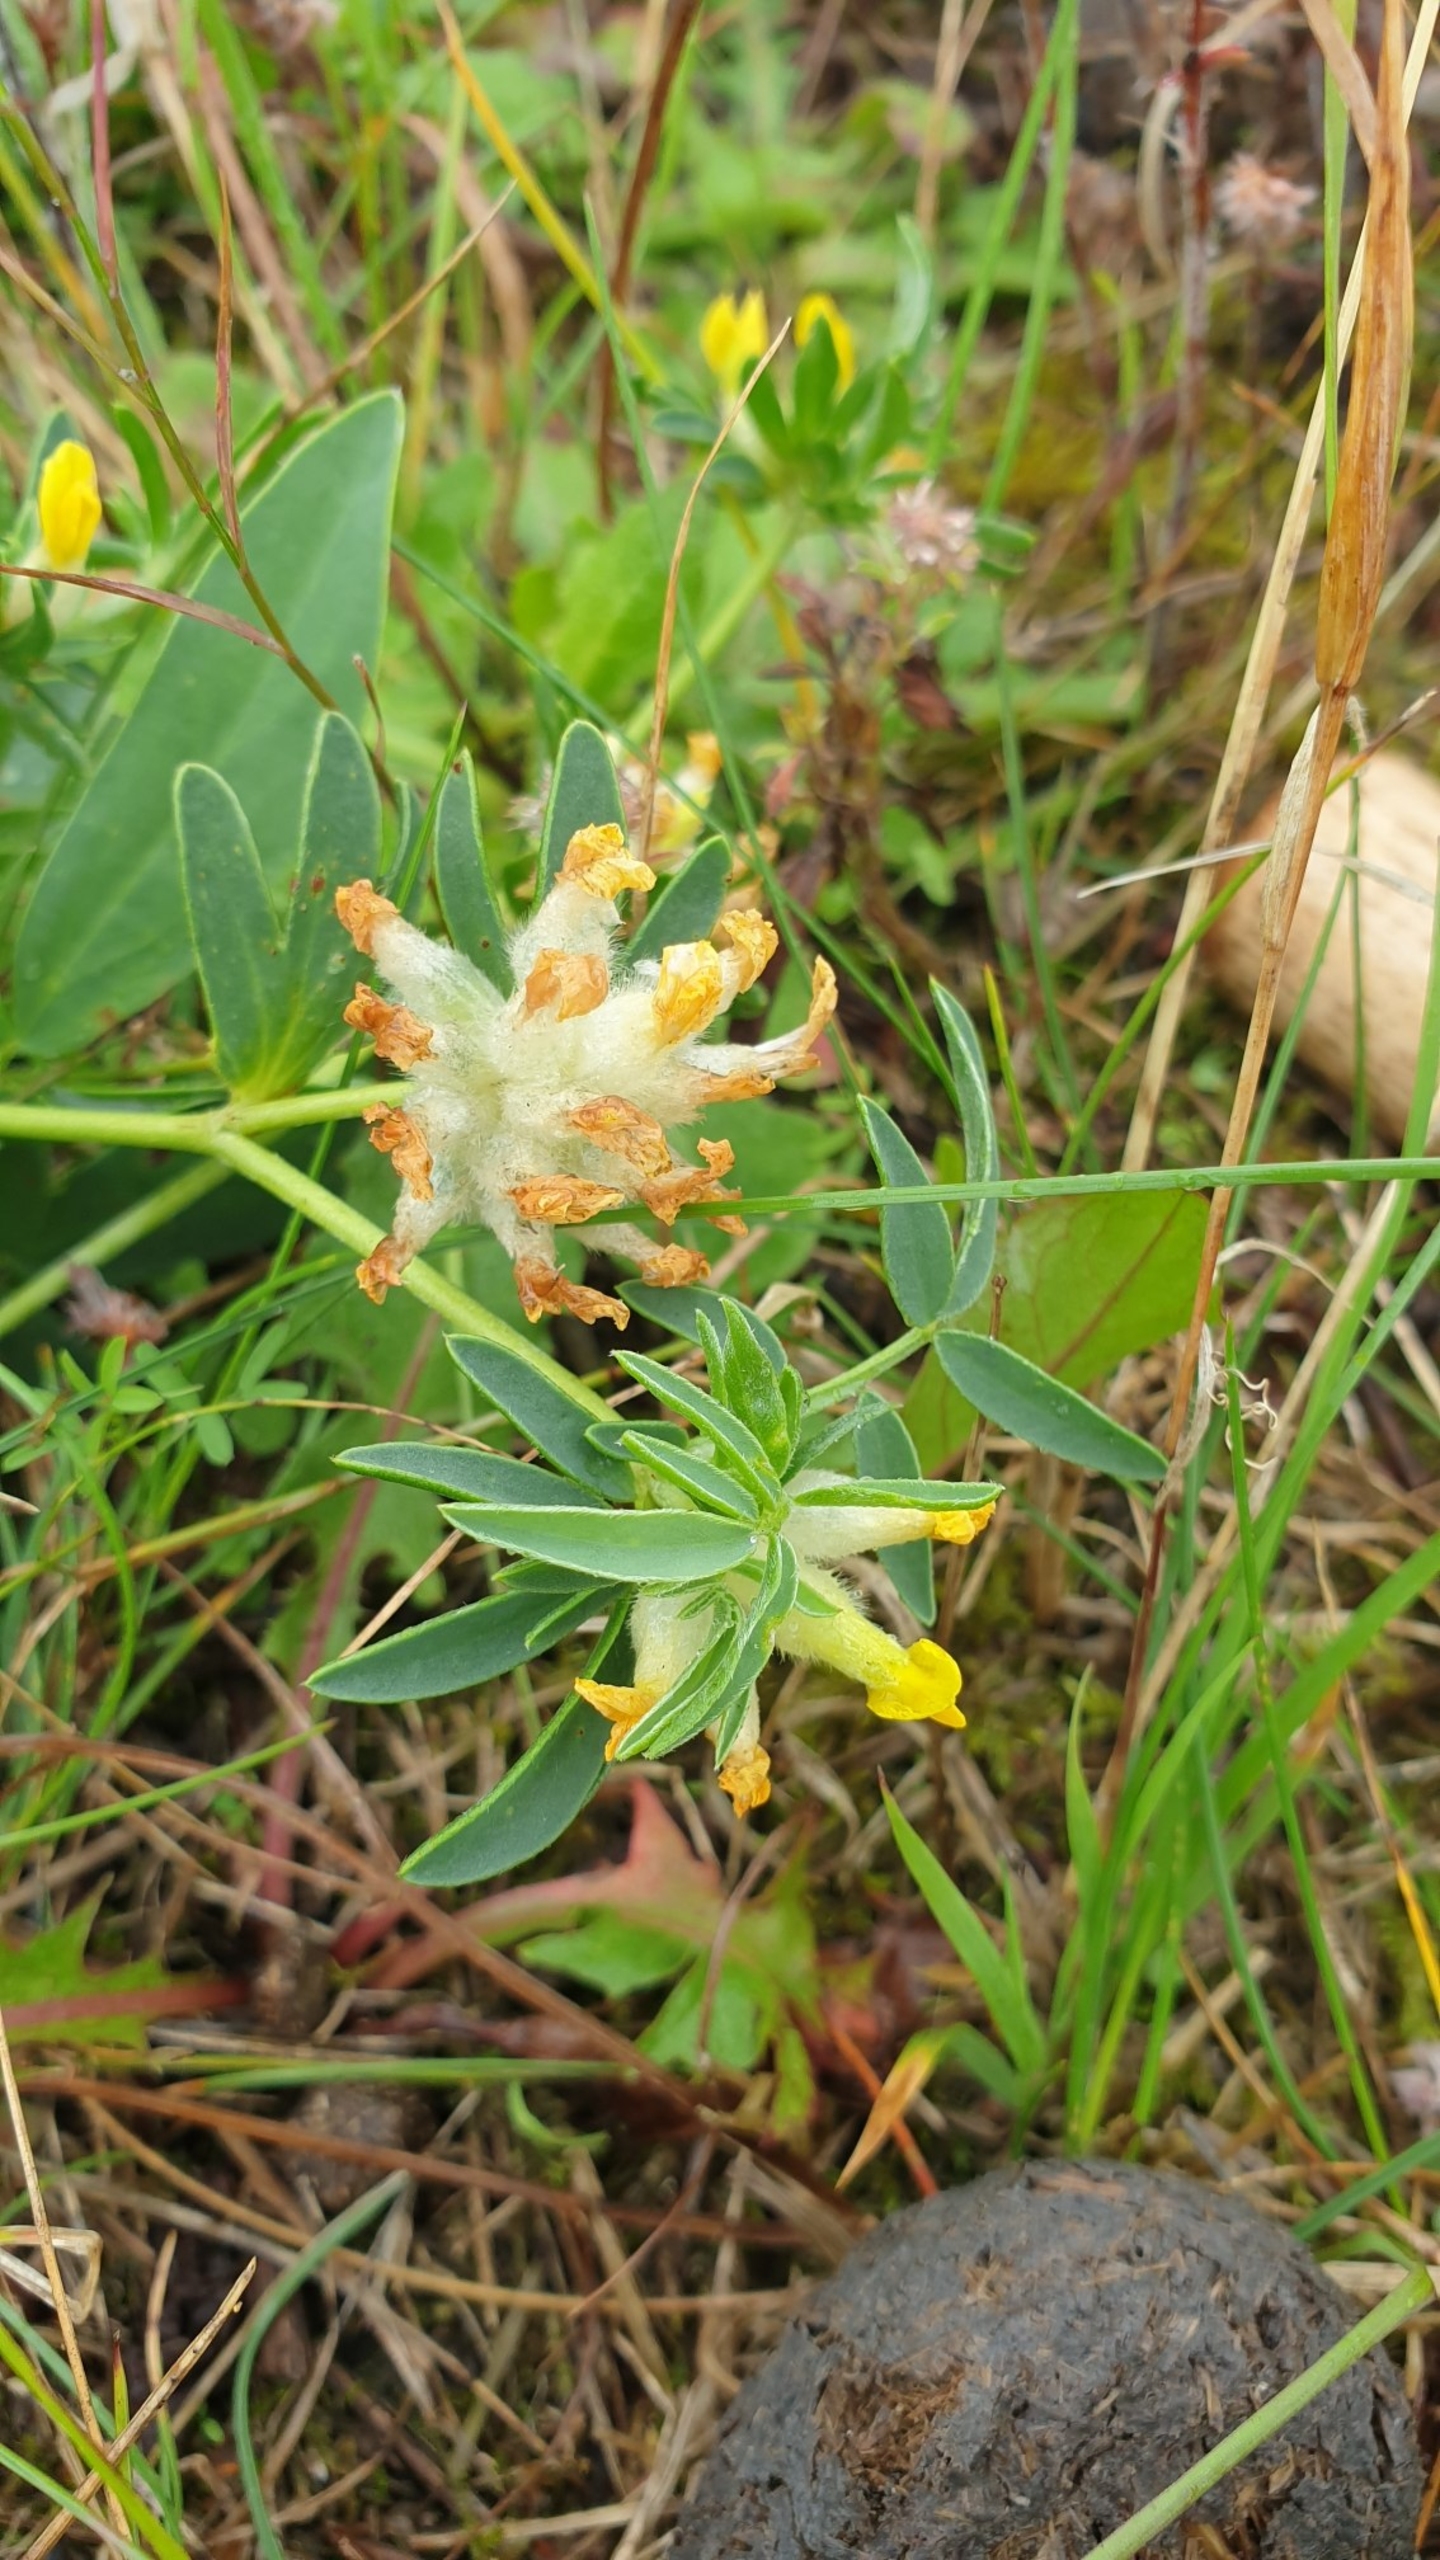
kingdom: Plantae
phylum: Tracheophyta
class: Magnoliopsida
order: Fabales
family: Fabaceae
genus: Anthyllis
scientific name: Anthyllis vulneraria
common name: Rundbælg
